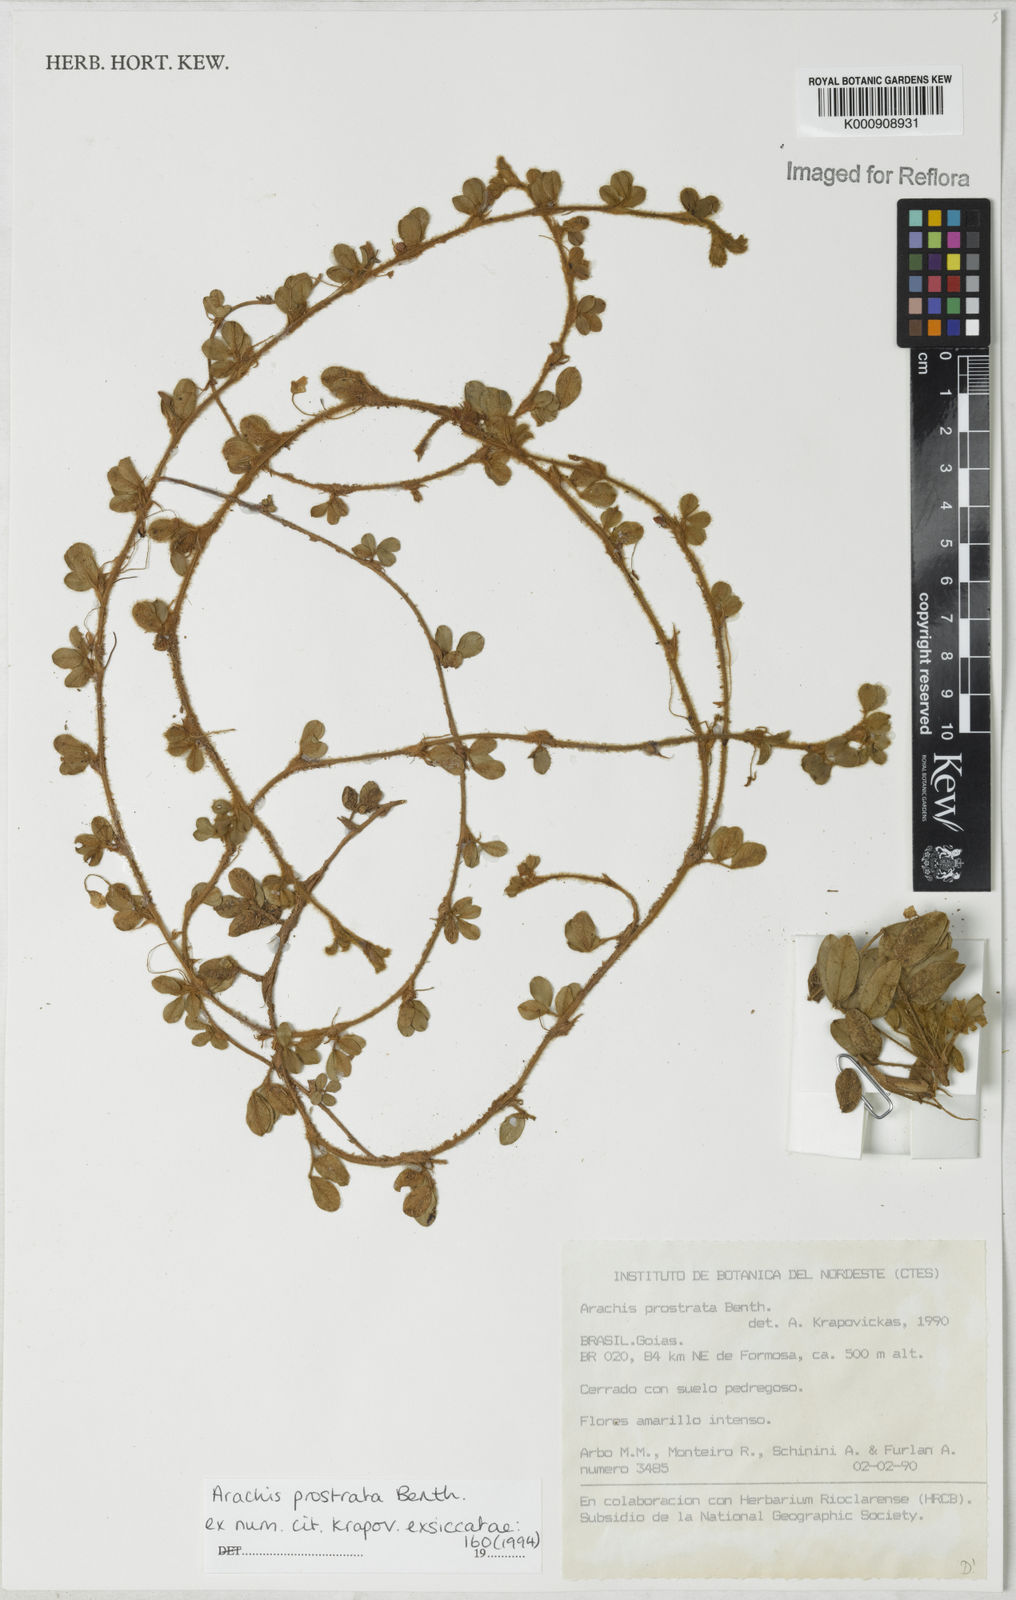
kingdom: Plantae
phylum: Tracheophyta
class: Magnoliopsida
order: Fabales
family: Fabaceae
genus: Arachis
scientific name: Arachis prostrata
